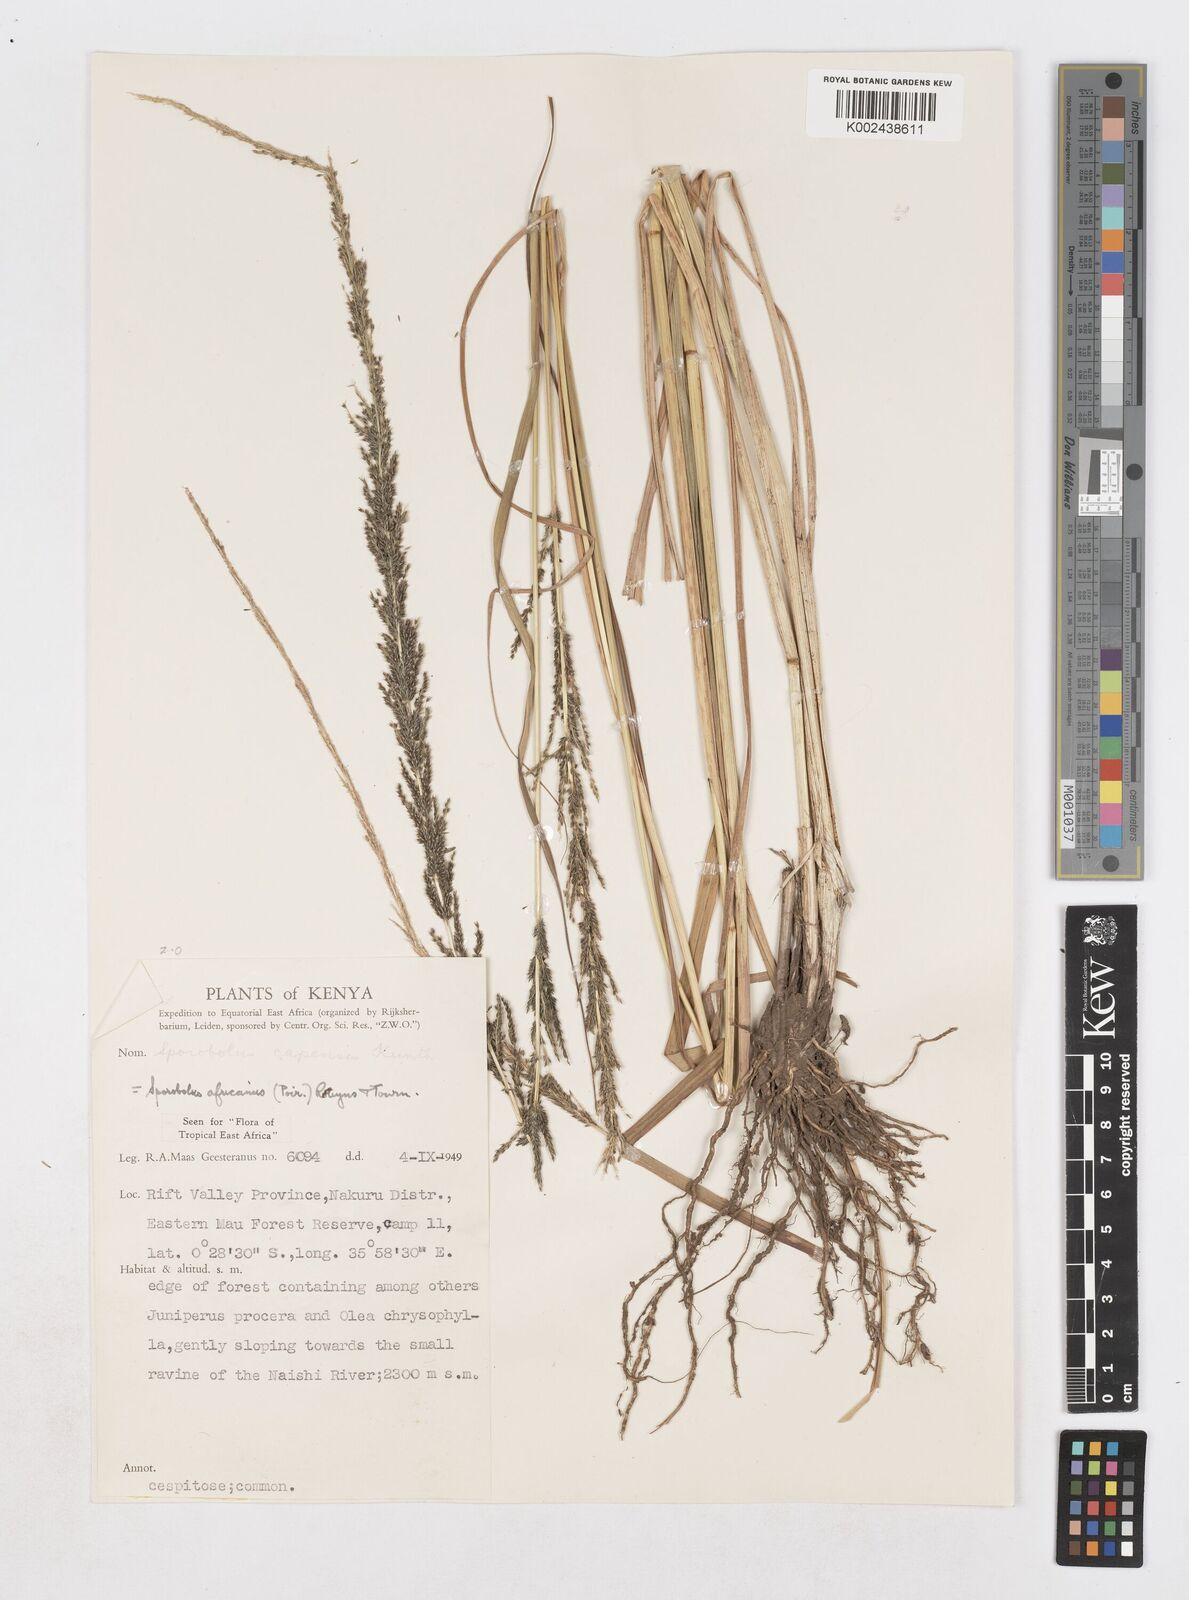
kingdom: Plantae
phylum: Tracheophyta
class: Liliopsida
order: Poales
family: Poaceae
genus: Sporobolus
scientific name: Sporobolus africanus
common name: African dropseed
